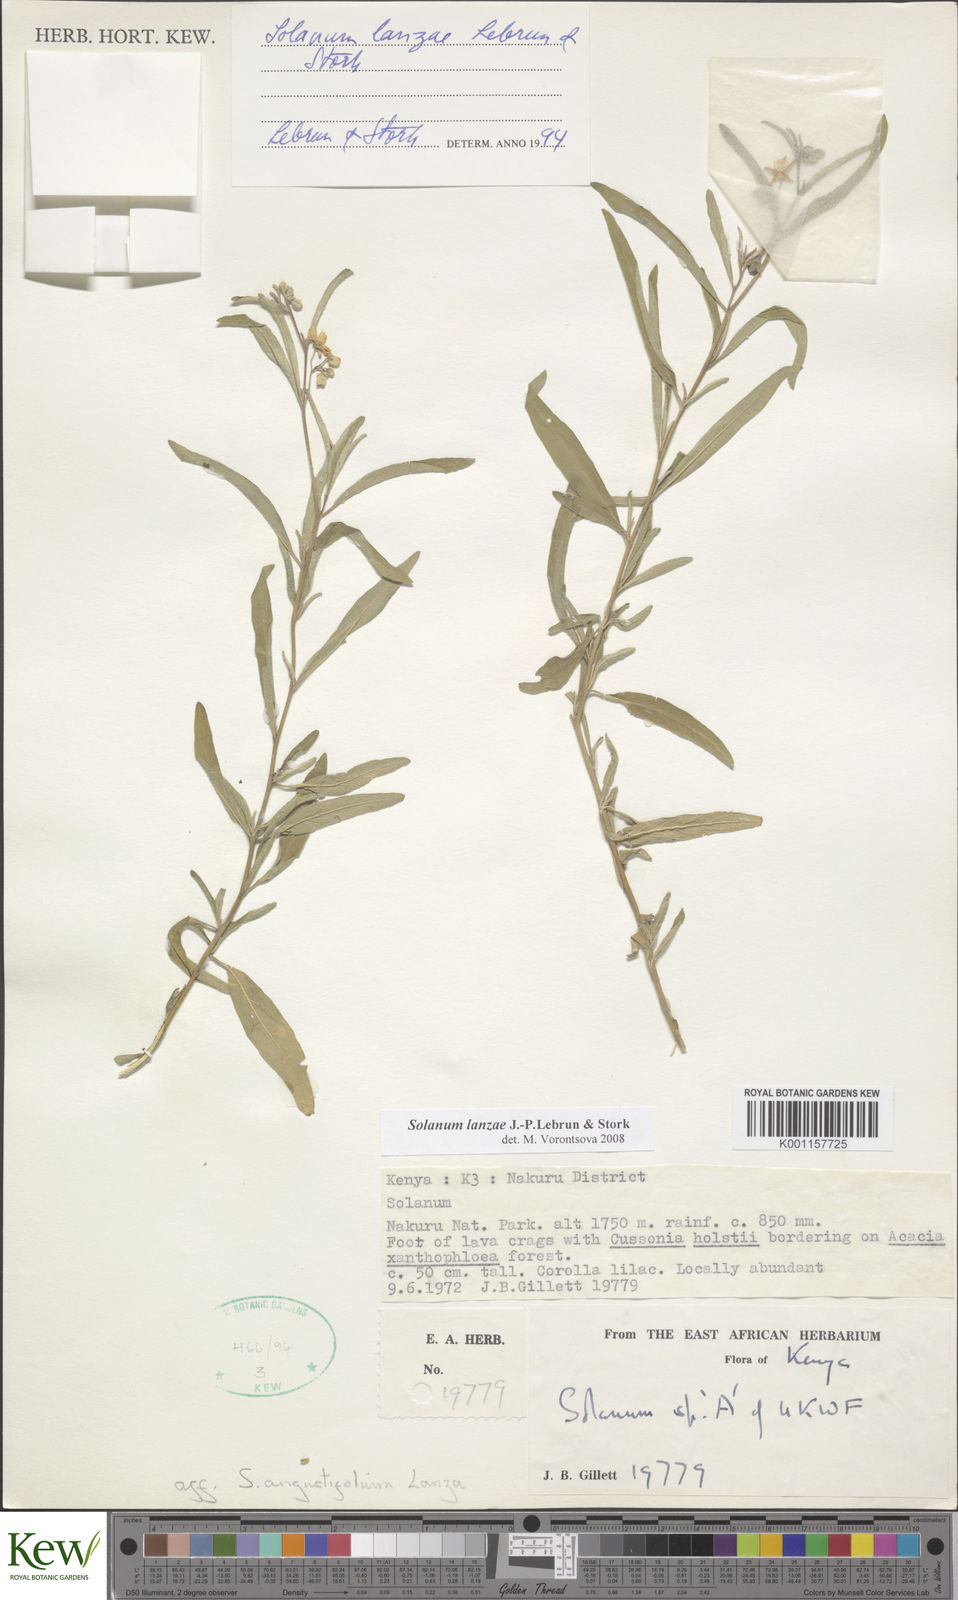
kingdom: Plantae
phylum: Tracheophyta
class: Magnoliopsida
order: Solanales
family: Solanaceae
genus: Solanum
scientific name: Solanum lanzae
